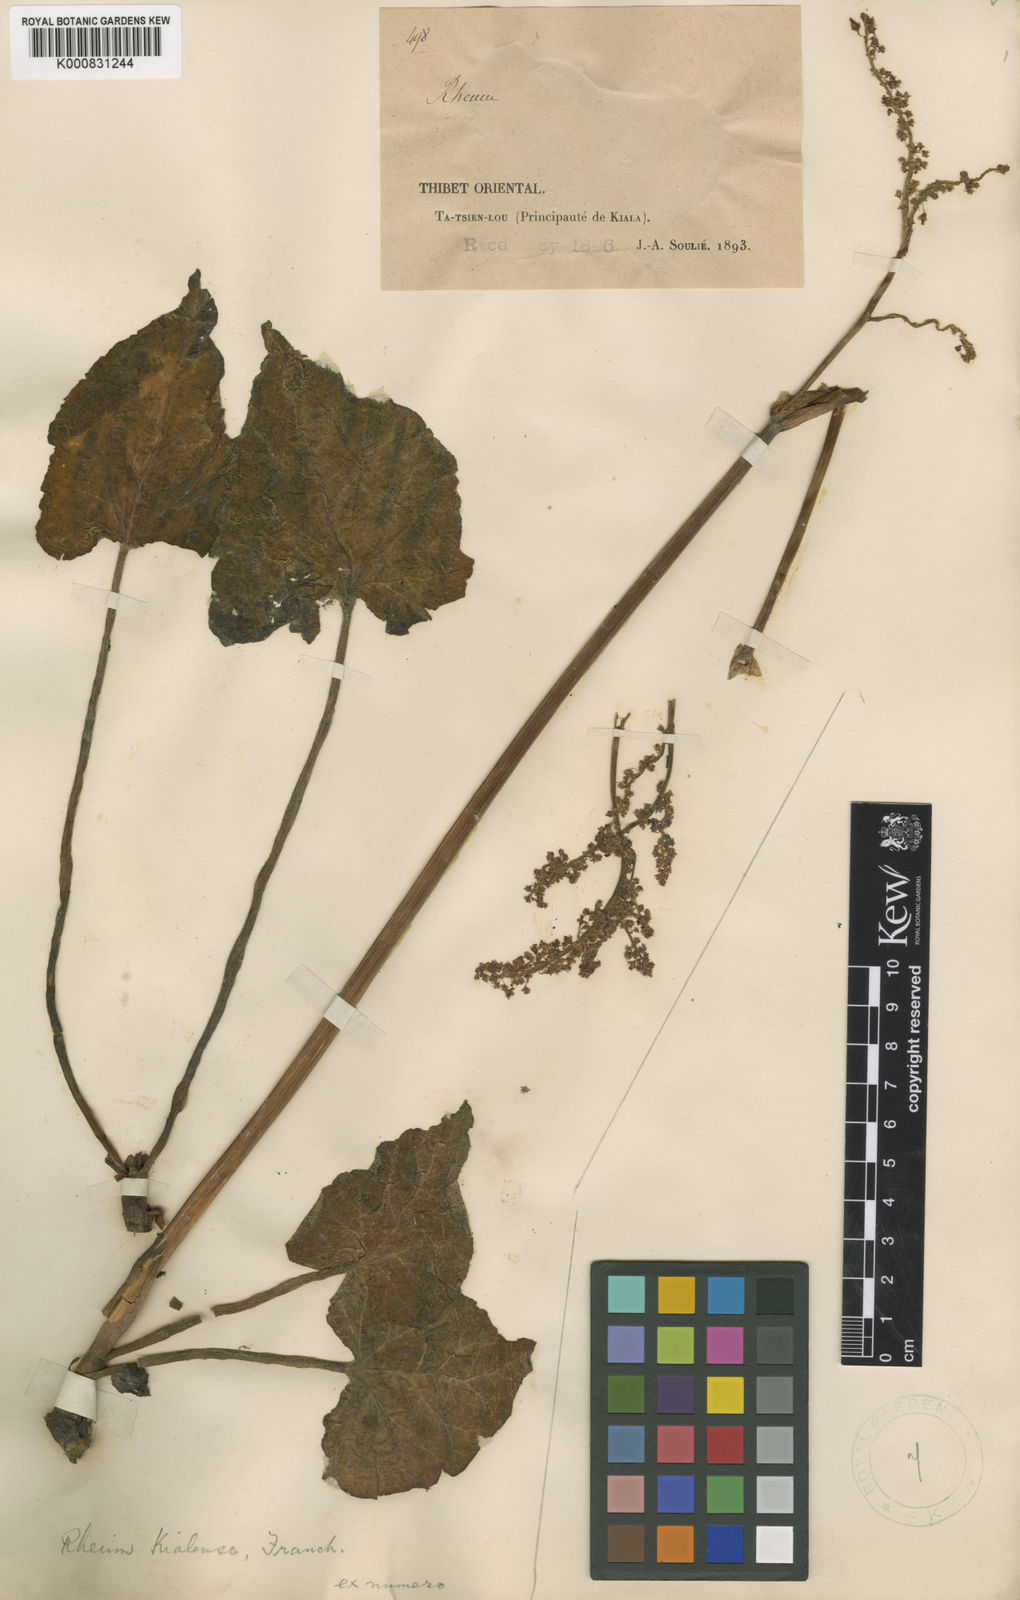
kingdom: Plantae
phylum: Tracheophyta
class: Magnoliopsida
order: Caryophyllales
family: Polygonaceae
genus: Rheum
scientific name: Rheum kialense
